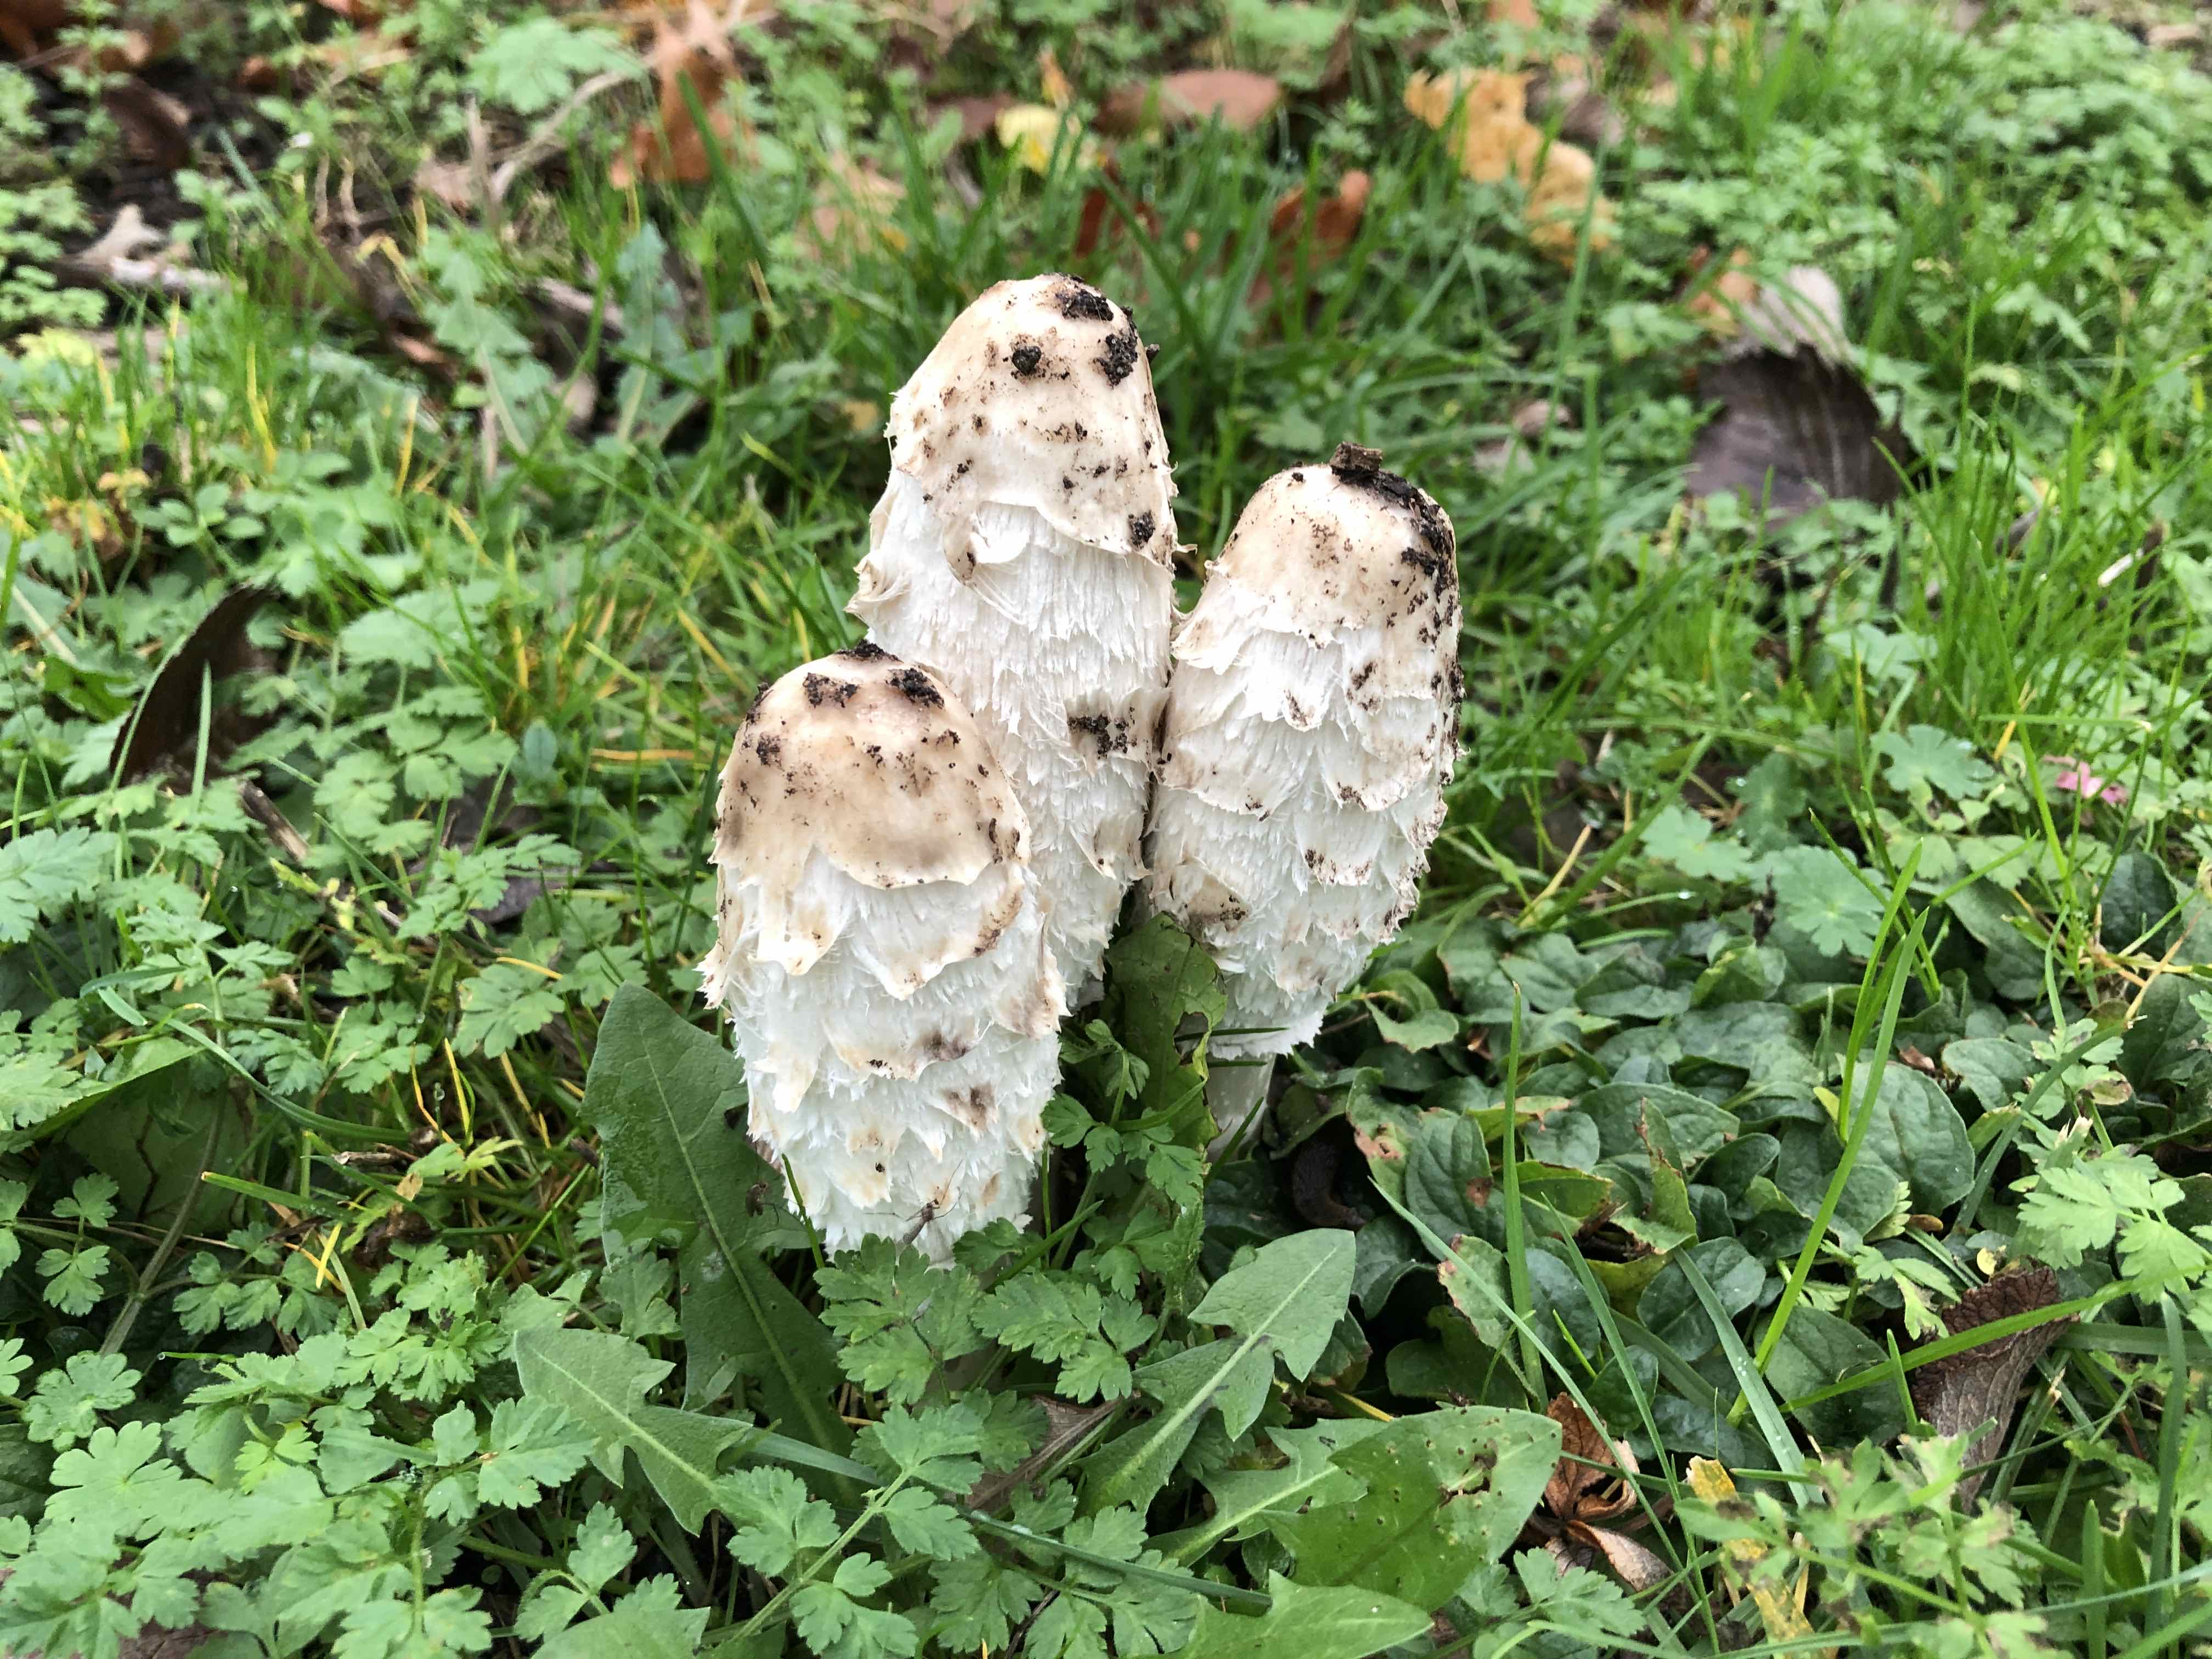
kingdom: Fungi
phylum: Basidiomycota
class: Agaricomycetes
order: Agaricales
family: Agaricaceae
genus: Coprinus
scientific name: Coprinus comatus
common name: stor parykhat
